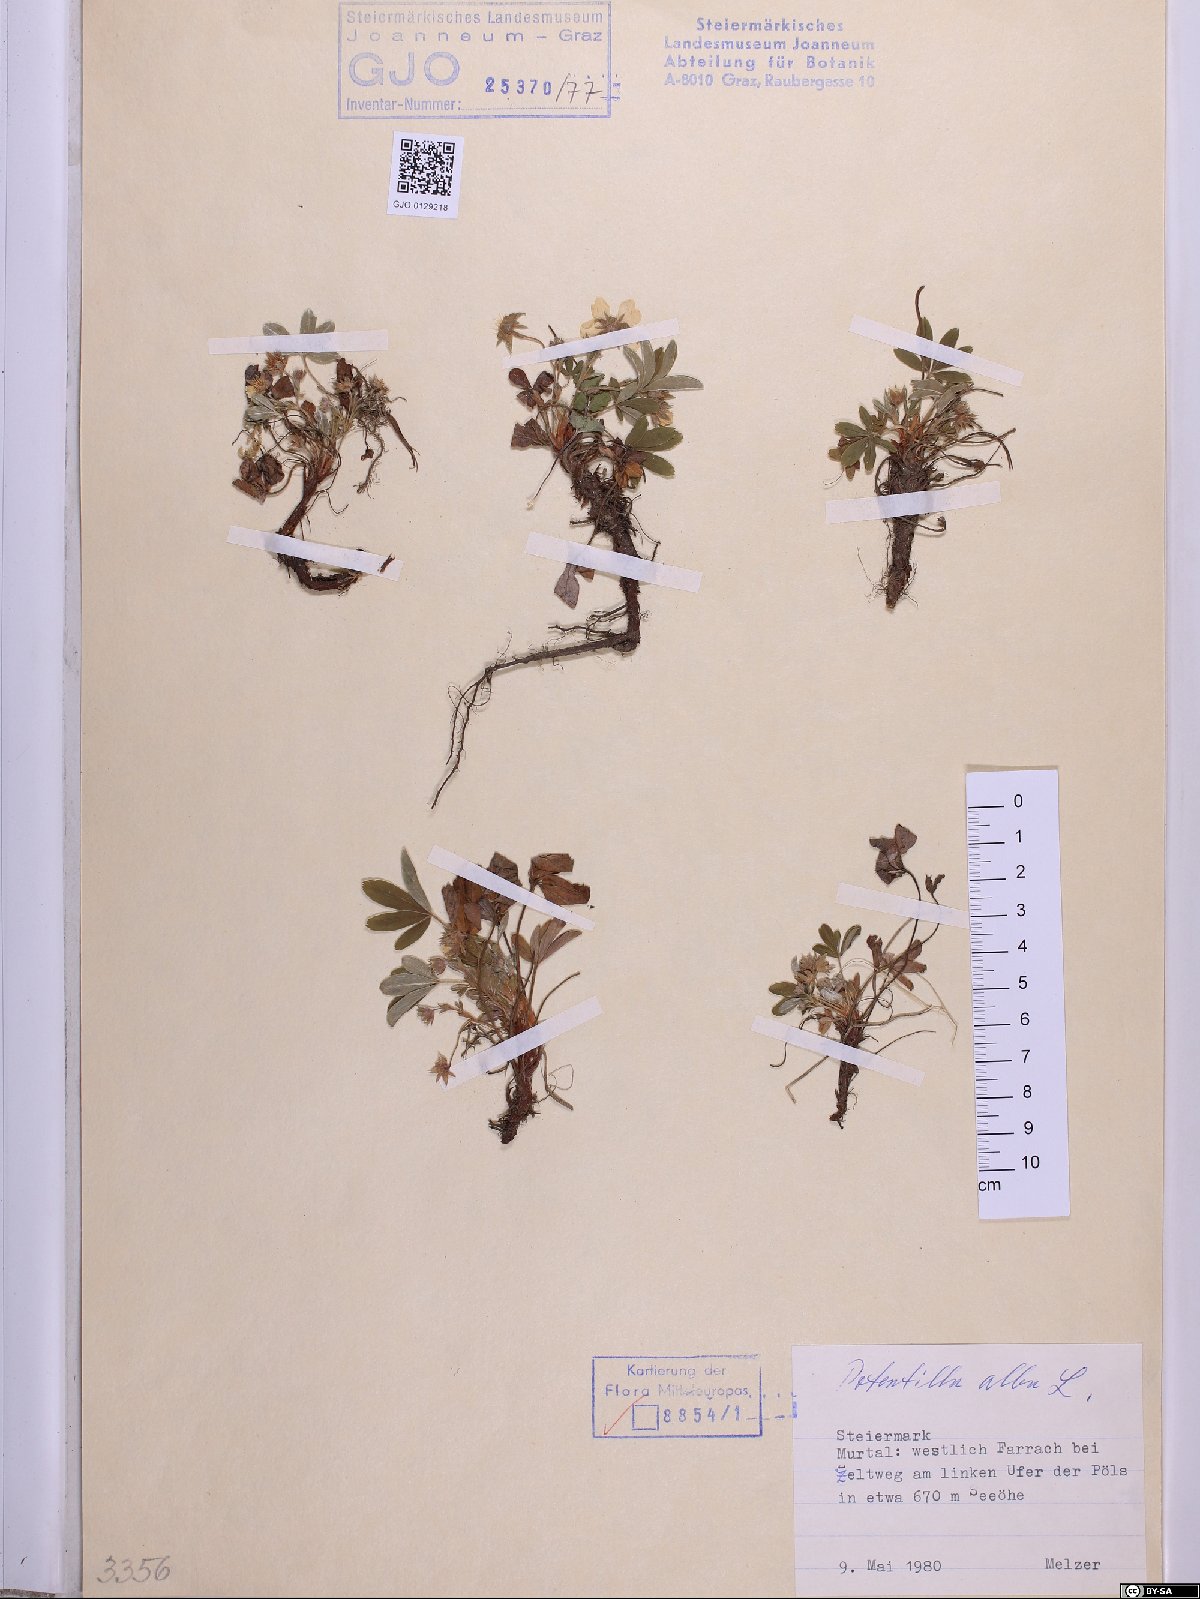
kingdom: Plantae
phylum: Tracheophyta
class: Magnoliopsida
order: Rosales
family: Rosaceae
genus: Potentilla
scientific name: Potentilla alba
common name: White cinquefoil
